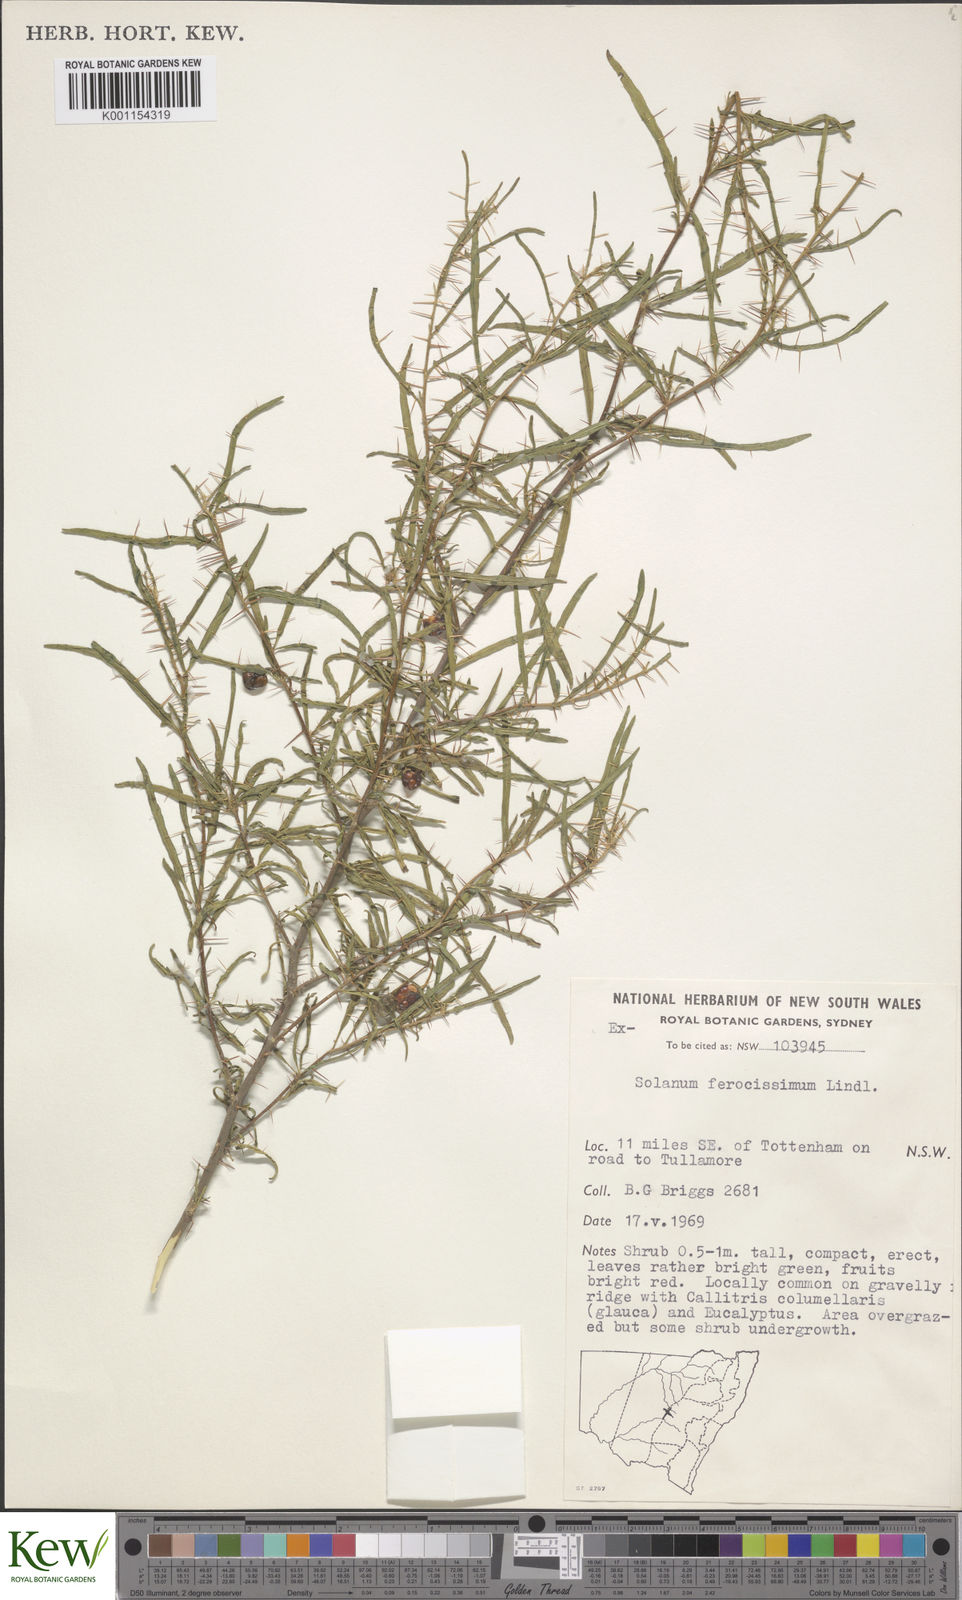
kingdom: Plantae
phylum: Tracheophyta
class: Magnoliopsida
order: Solanales
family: Solanaceae
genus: Solanum
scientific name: Solanum ferocissimum
